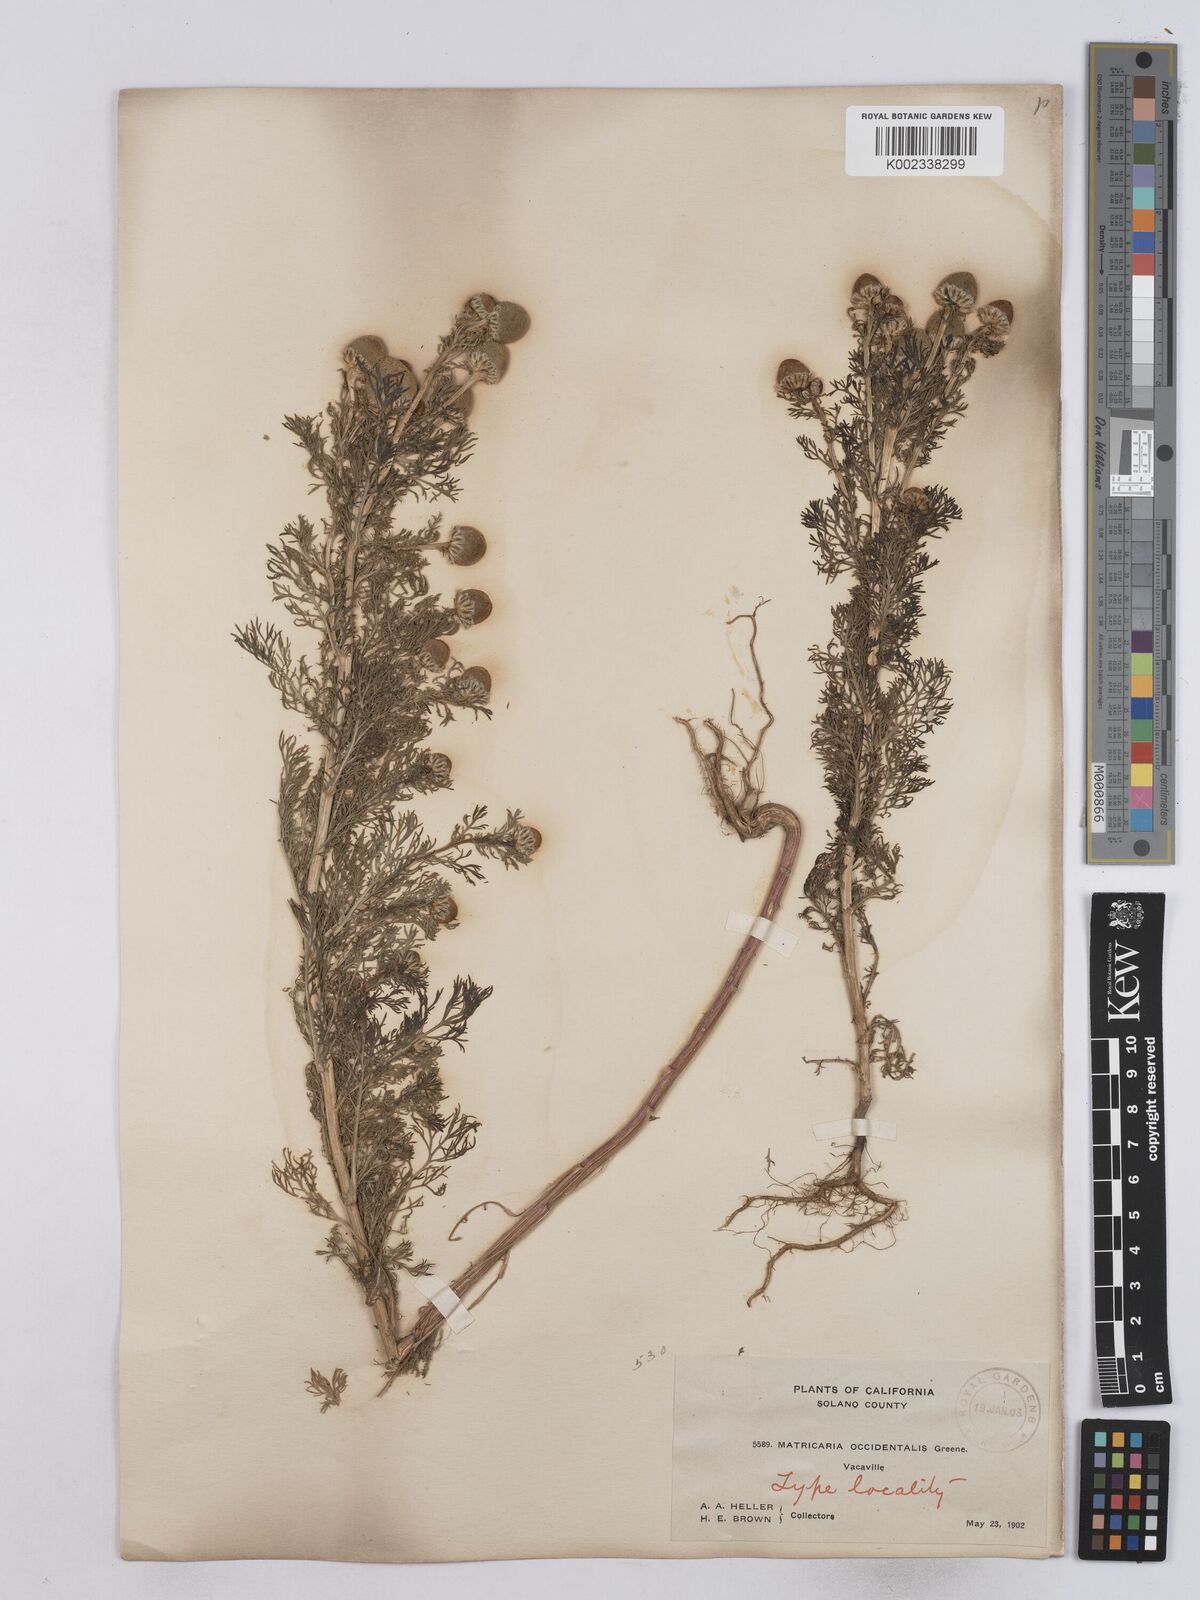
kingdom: Plantae
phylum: Tracheophyta
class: Magnoliopsida
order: Asterales
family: Asteraceae
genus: Matricaria
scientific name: Matricaria occidentalis
